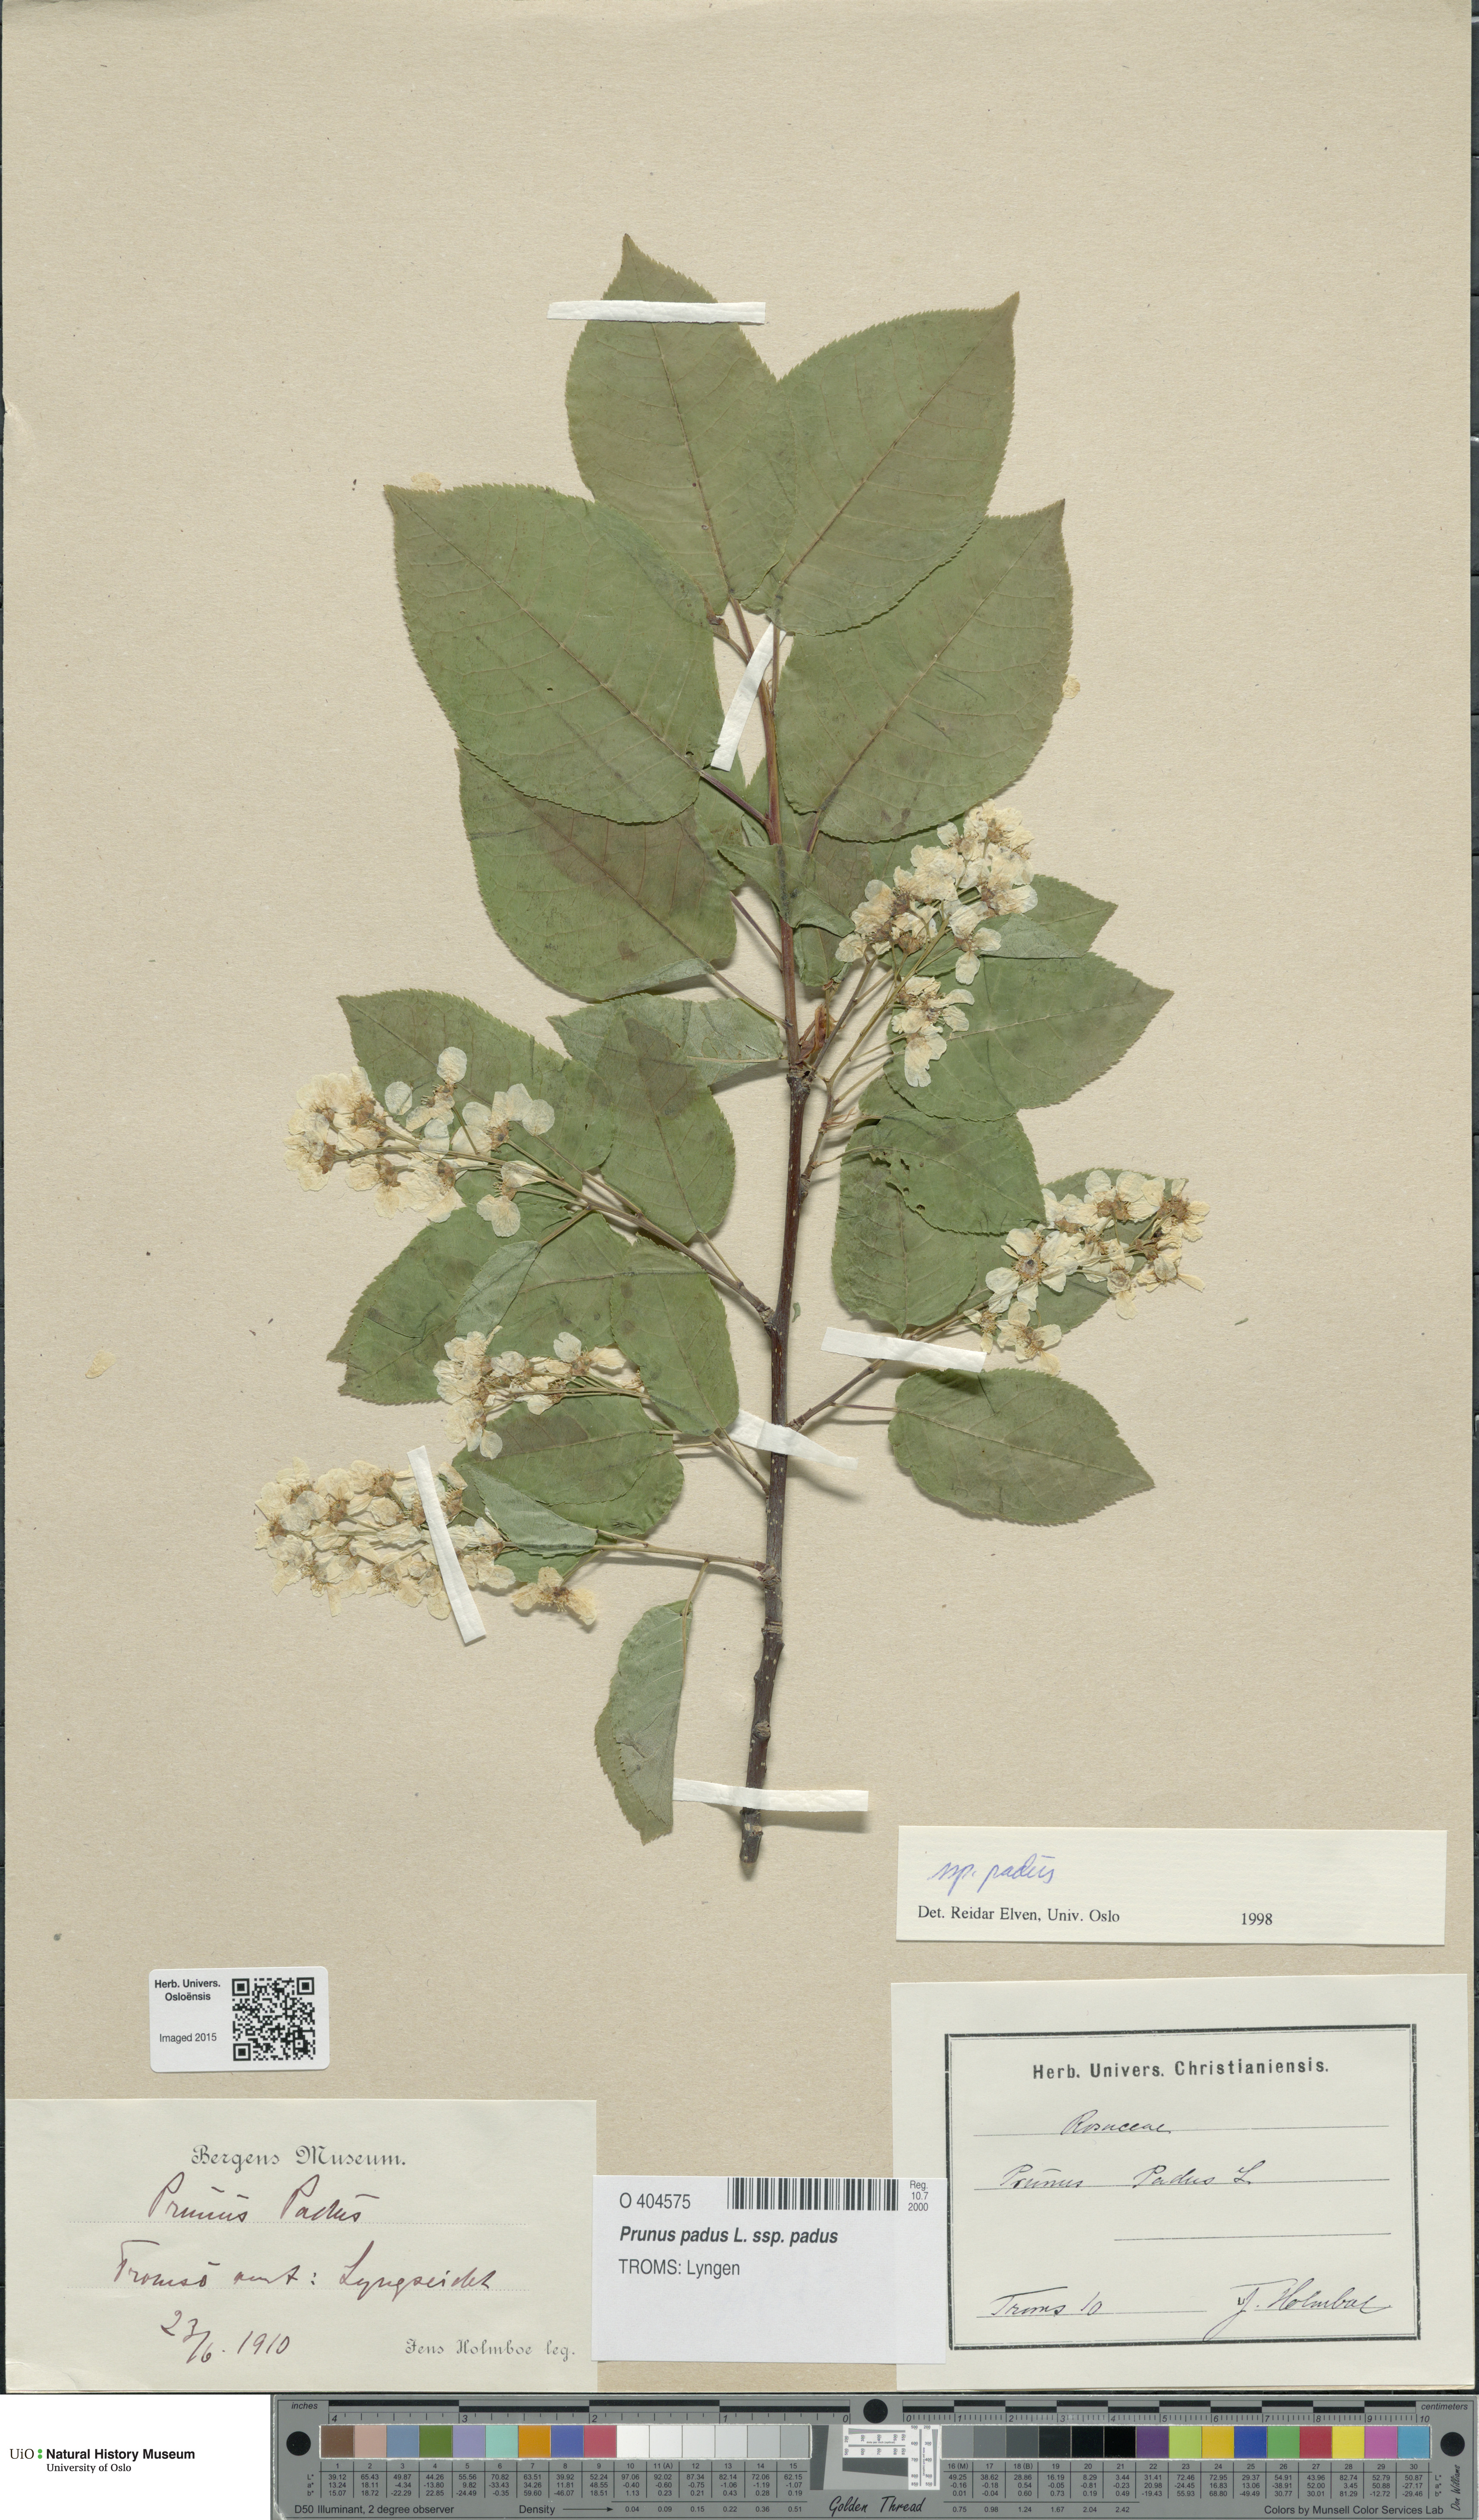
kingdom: Plantae
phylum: Tracheophyta
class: Magnoliopsida
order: Rosales
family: Rosaceae
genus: Prunus
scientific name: Prunus padus
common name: Bird cherry
